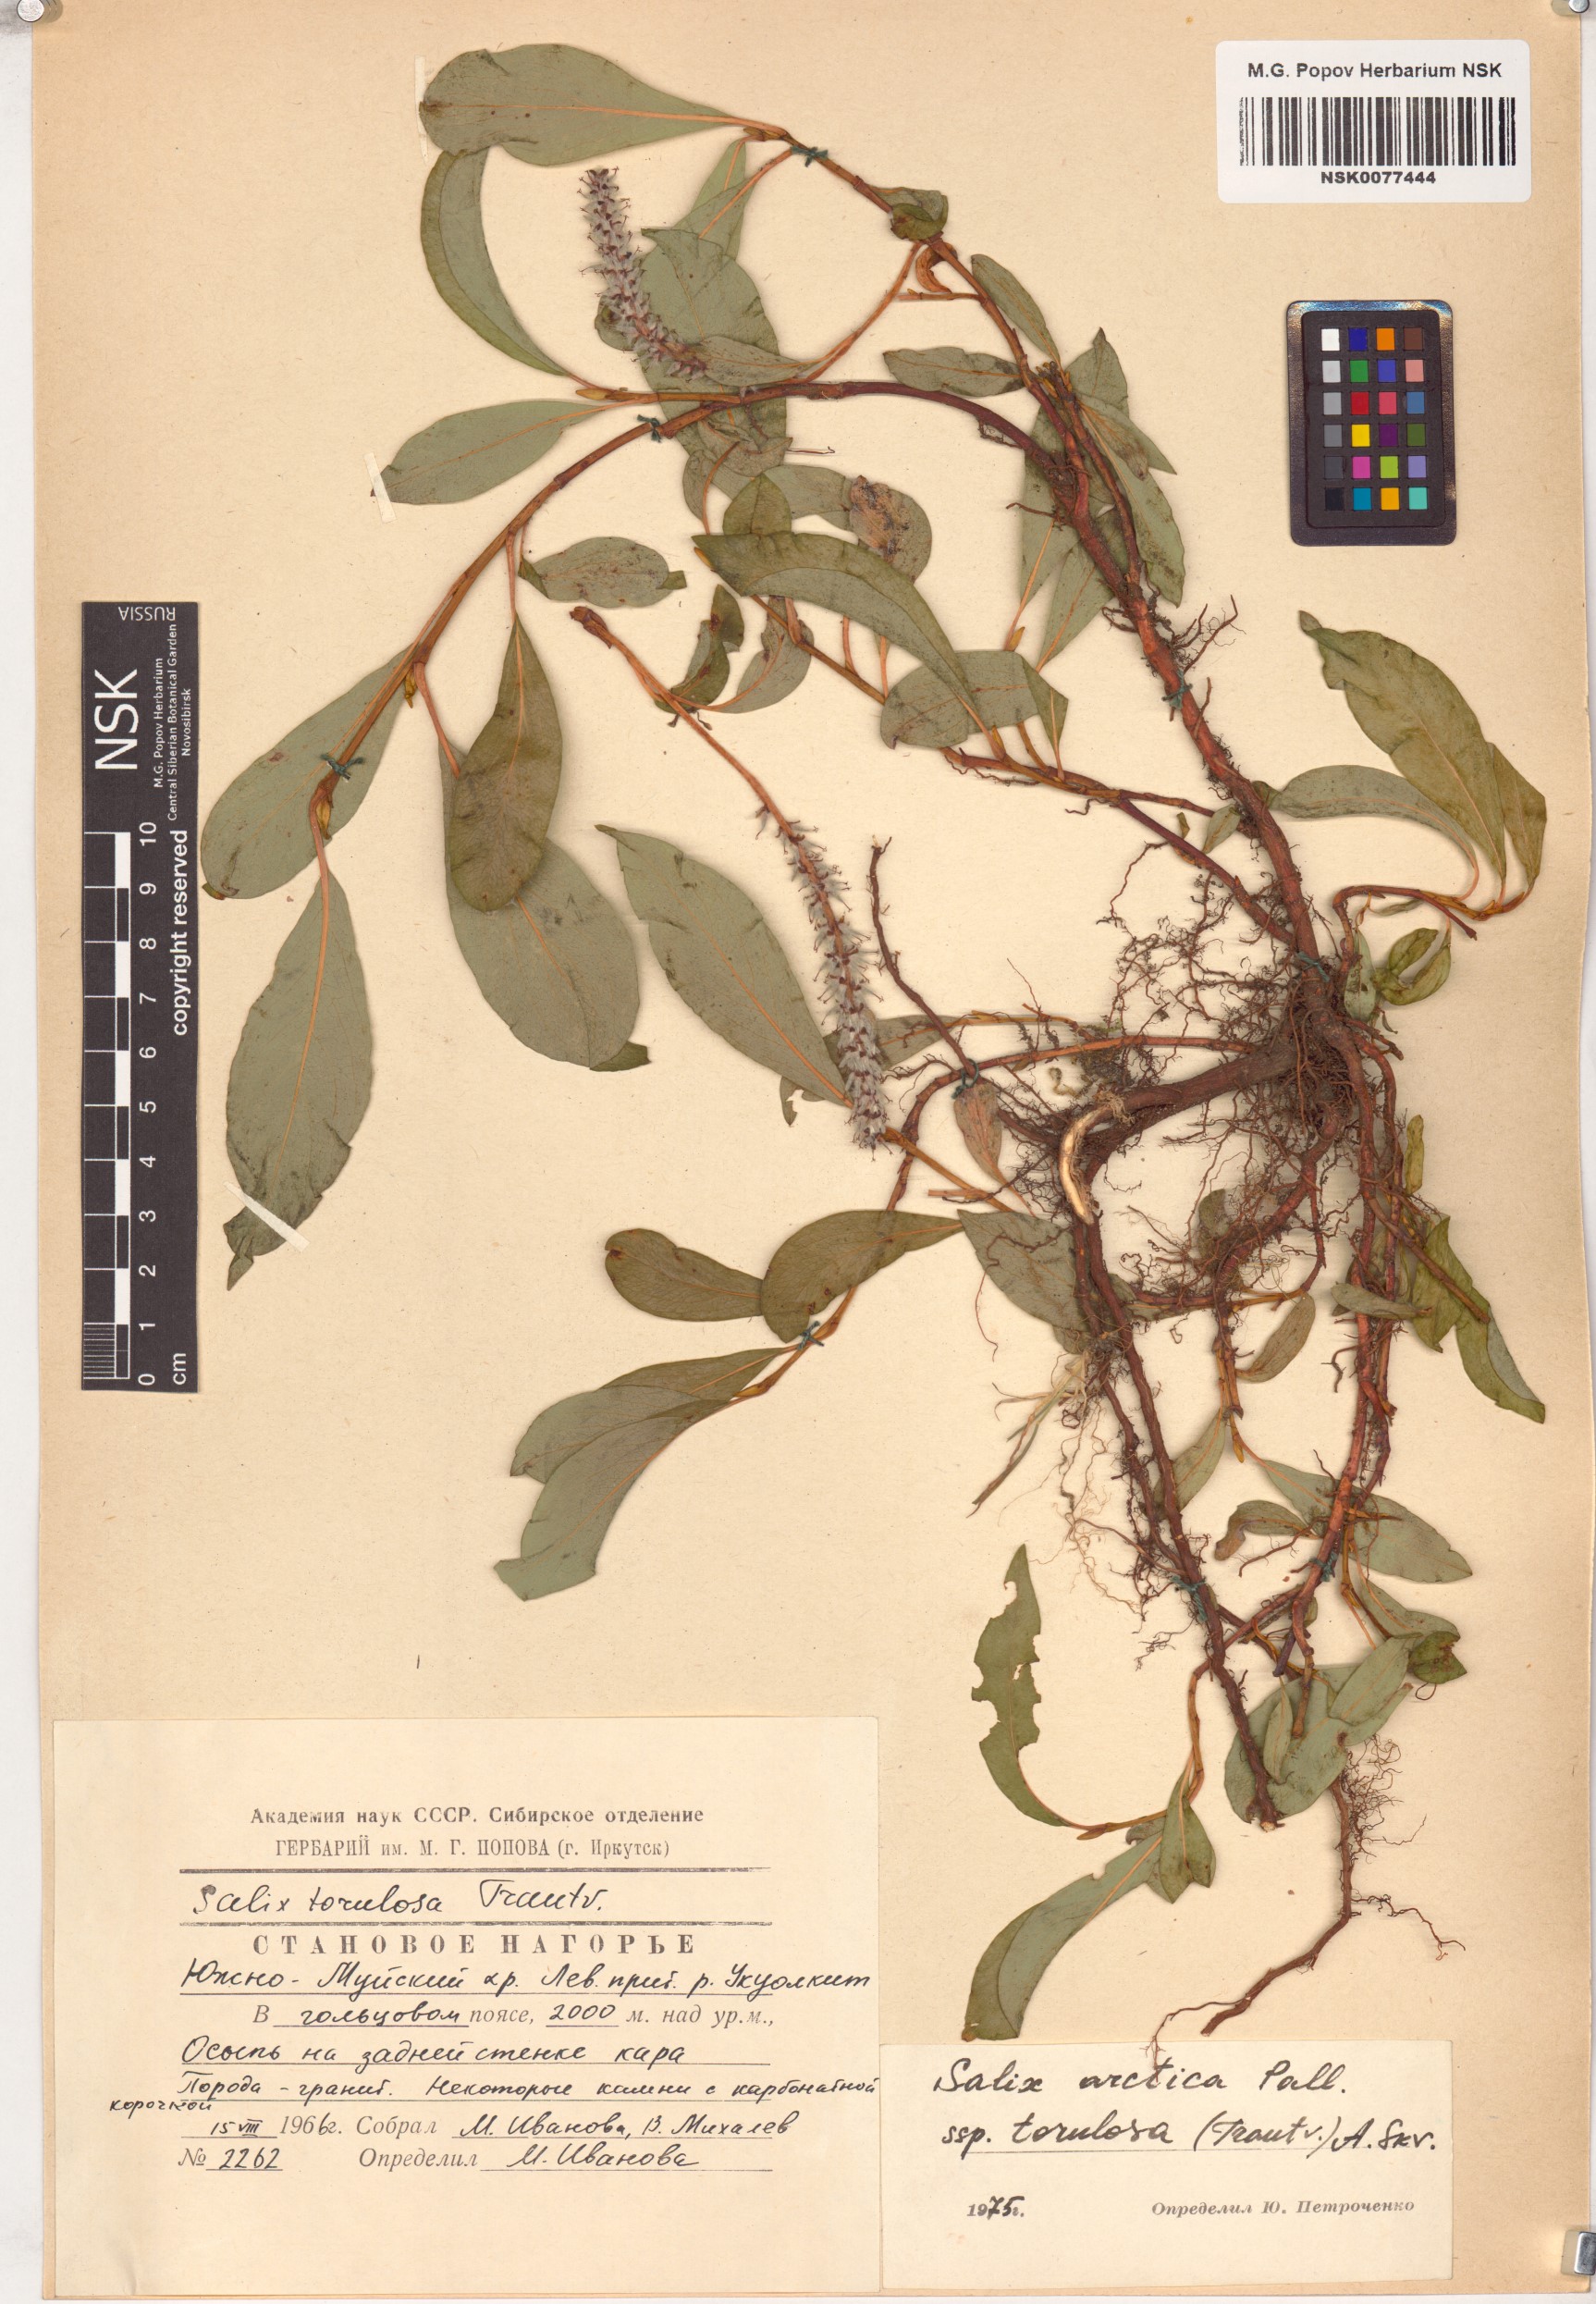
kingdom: Plantae
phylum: Tracheophyta
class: Magnoliopsida
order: Malpighiales
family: Salicaceae
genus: Salix
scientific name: Salix arctica
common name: Arctic willow
